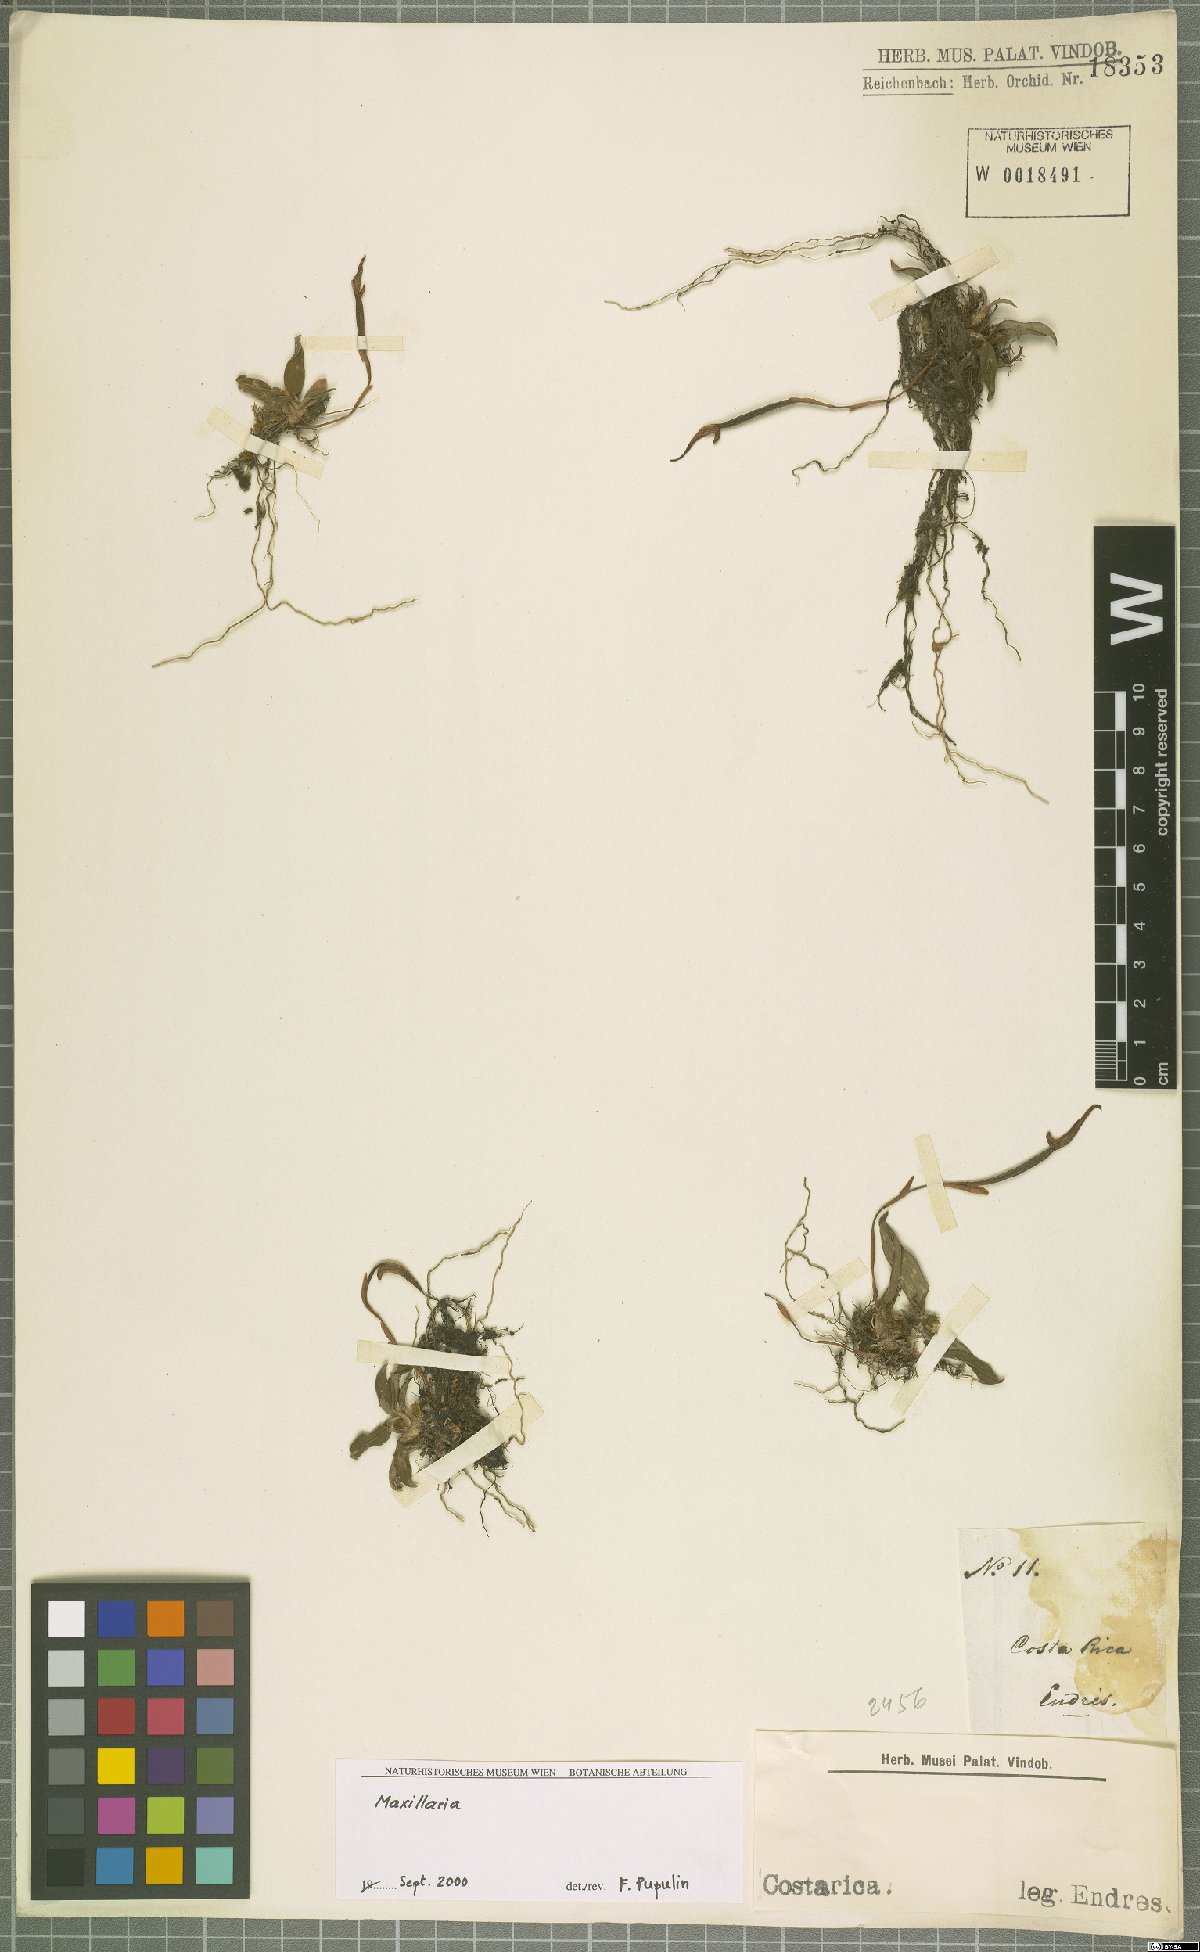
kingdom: Plantae
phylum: Tracheophyta
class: Liliopsida
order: Asparagales
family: Orchidaceae
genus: Maxillaria
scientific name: Maxillaria
